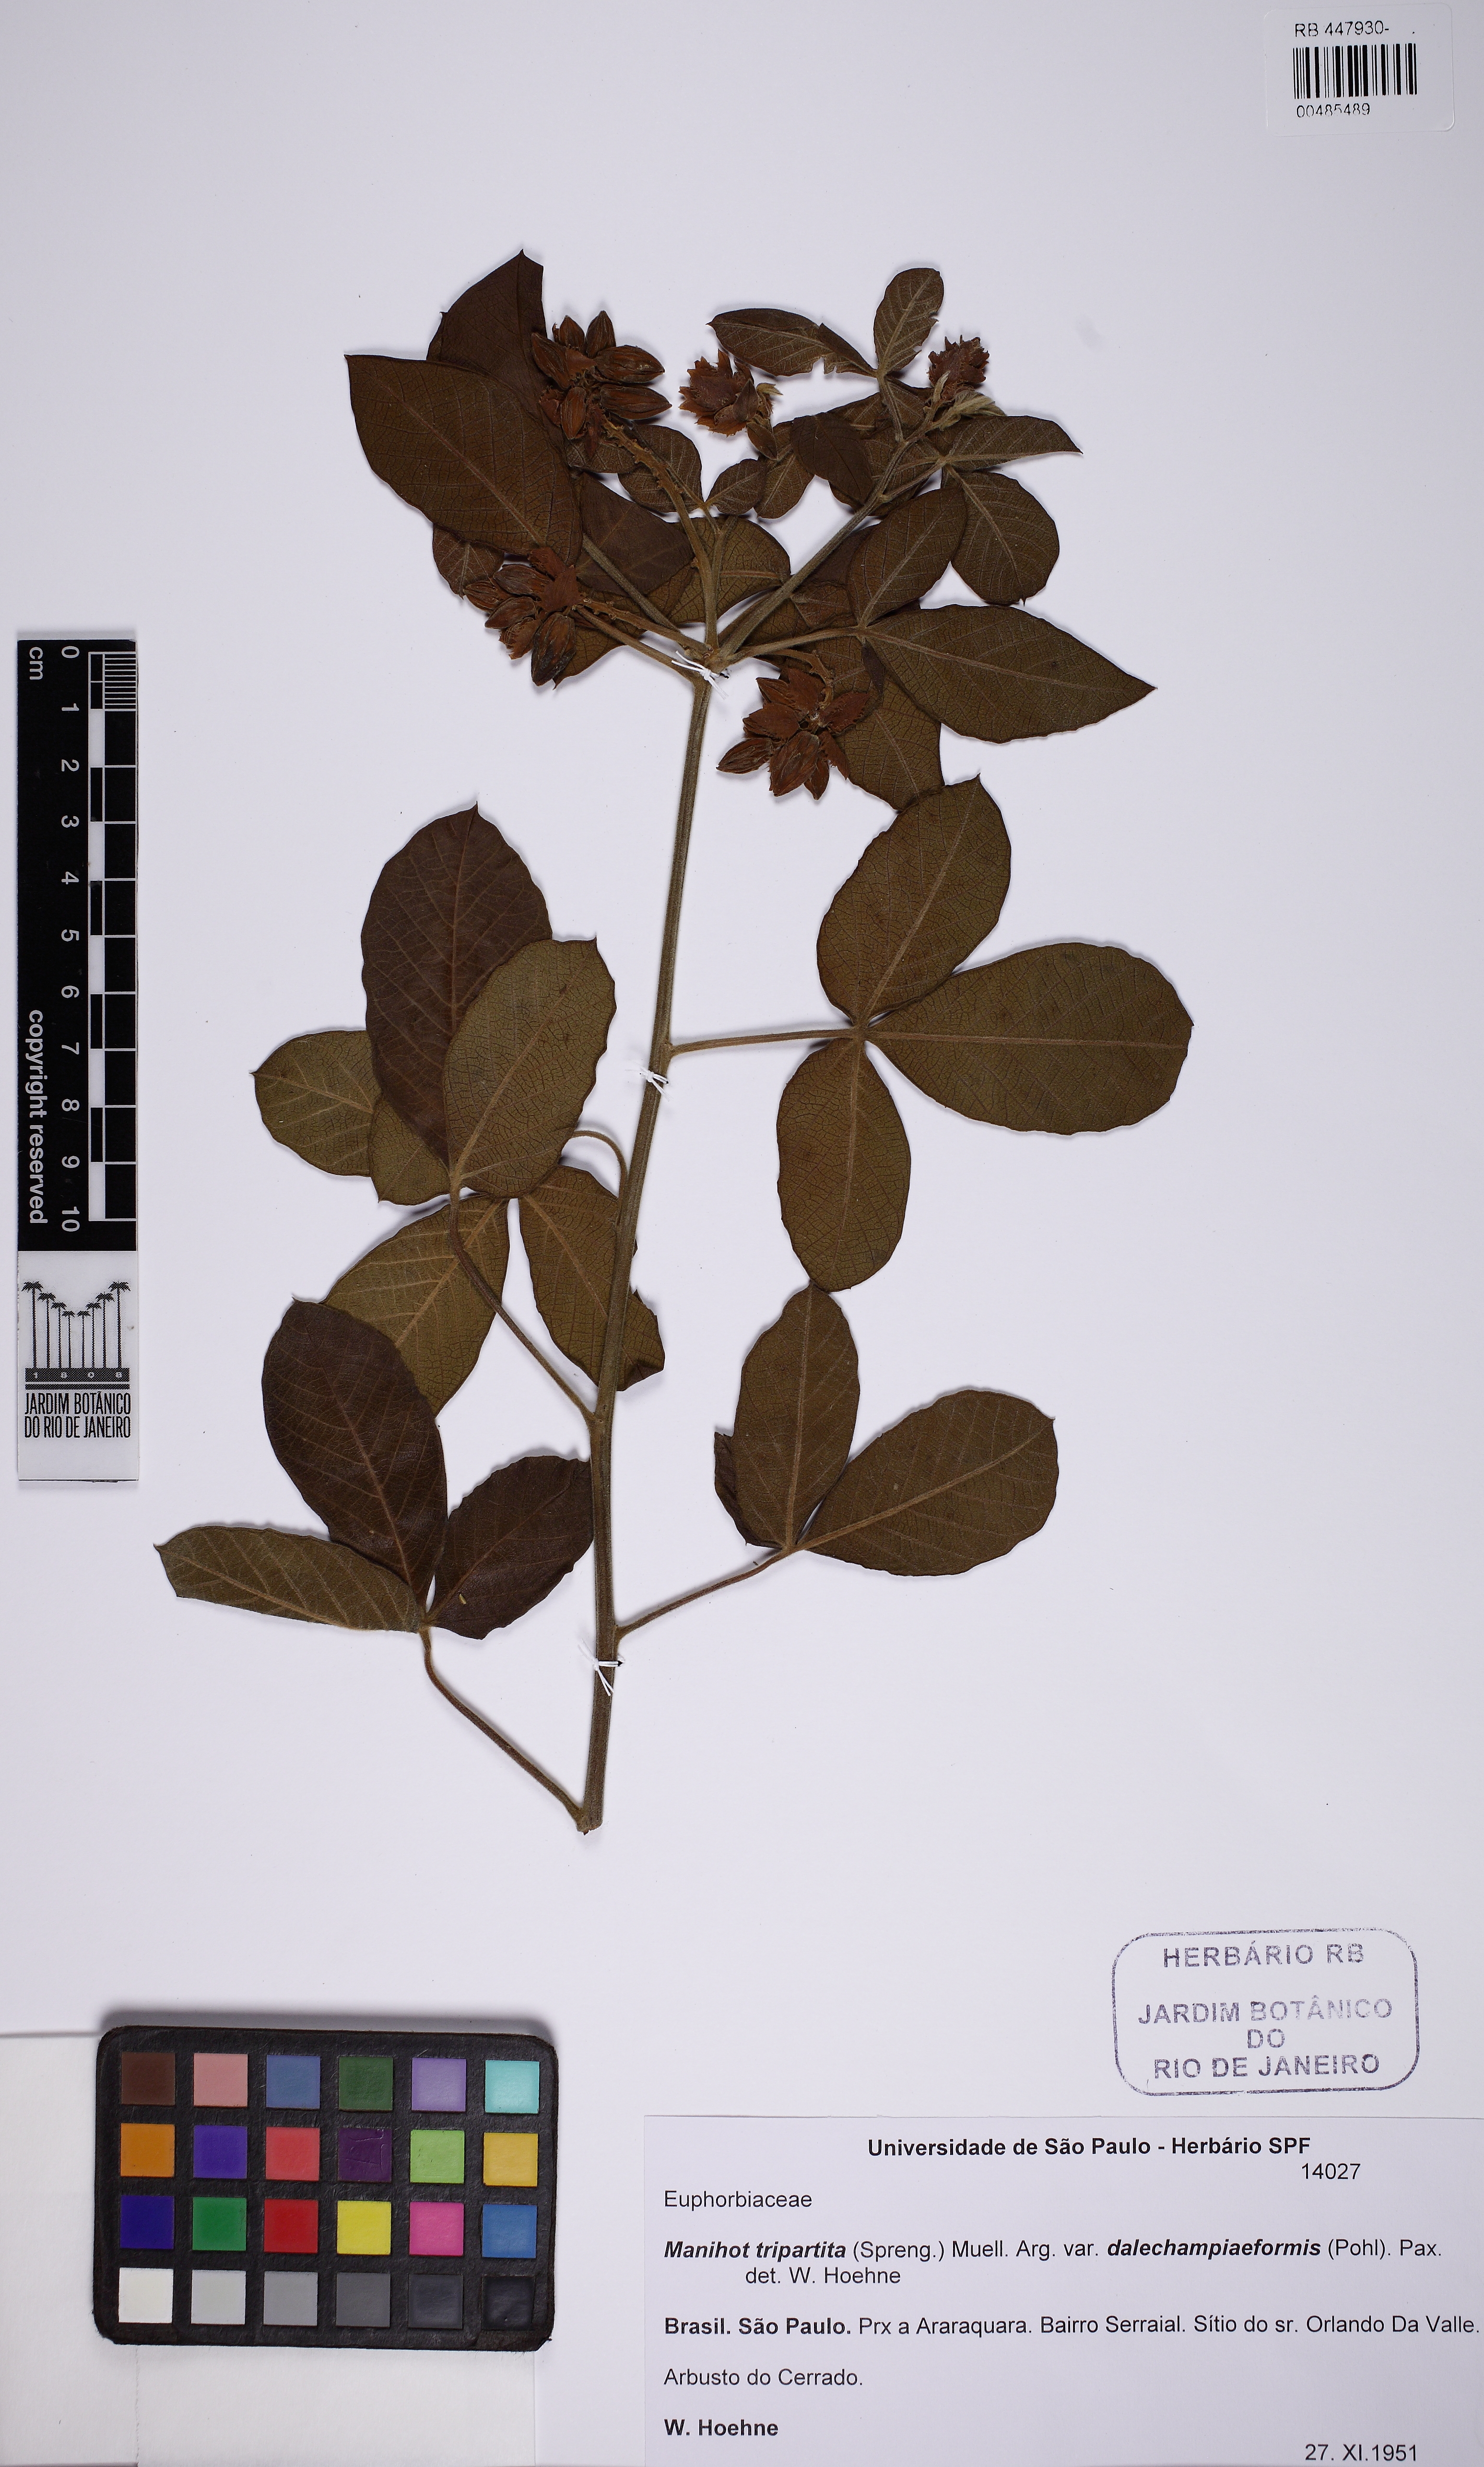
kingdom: Plantae
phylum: Tracheophyta
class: Magnoliopsida
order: Malpighiales
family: Euphorbiaceae
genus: Manihot
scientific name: Manihot tripartita
